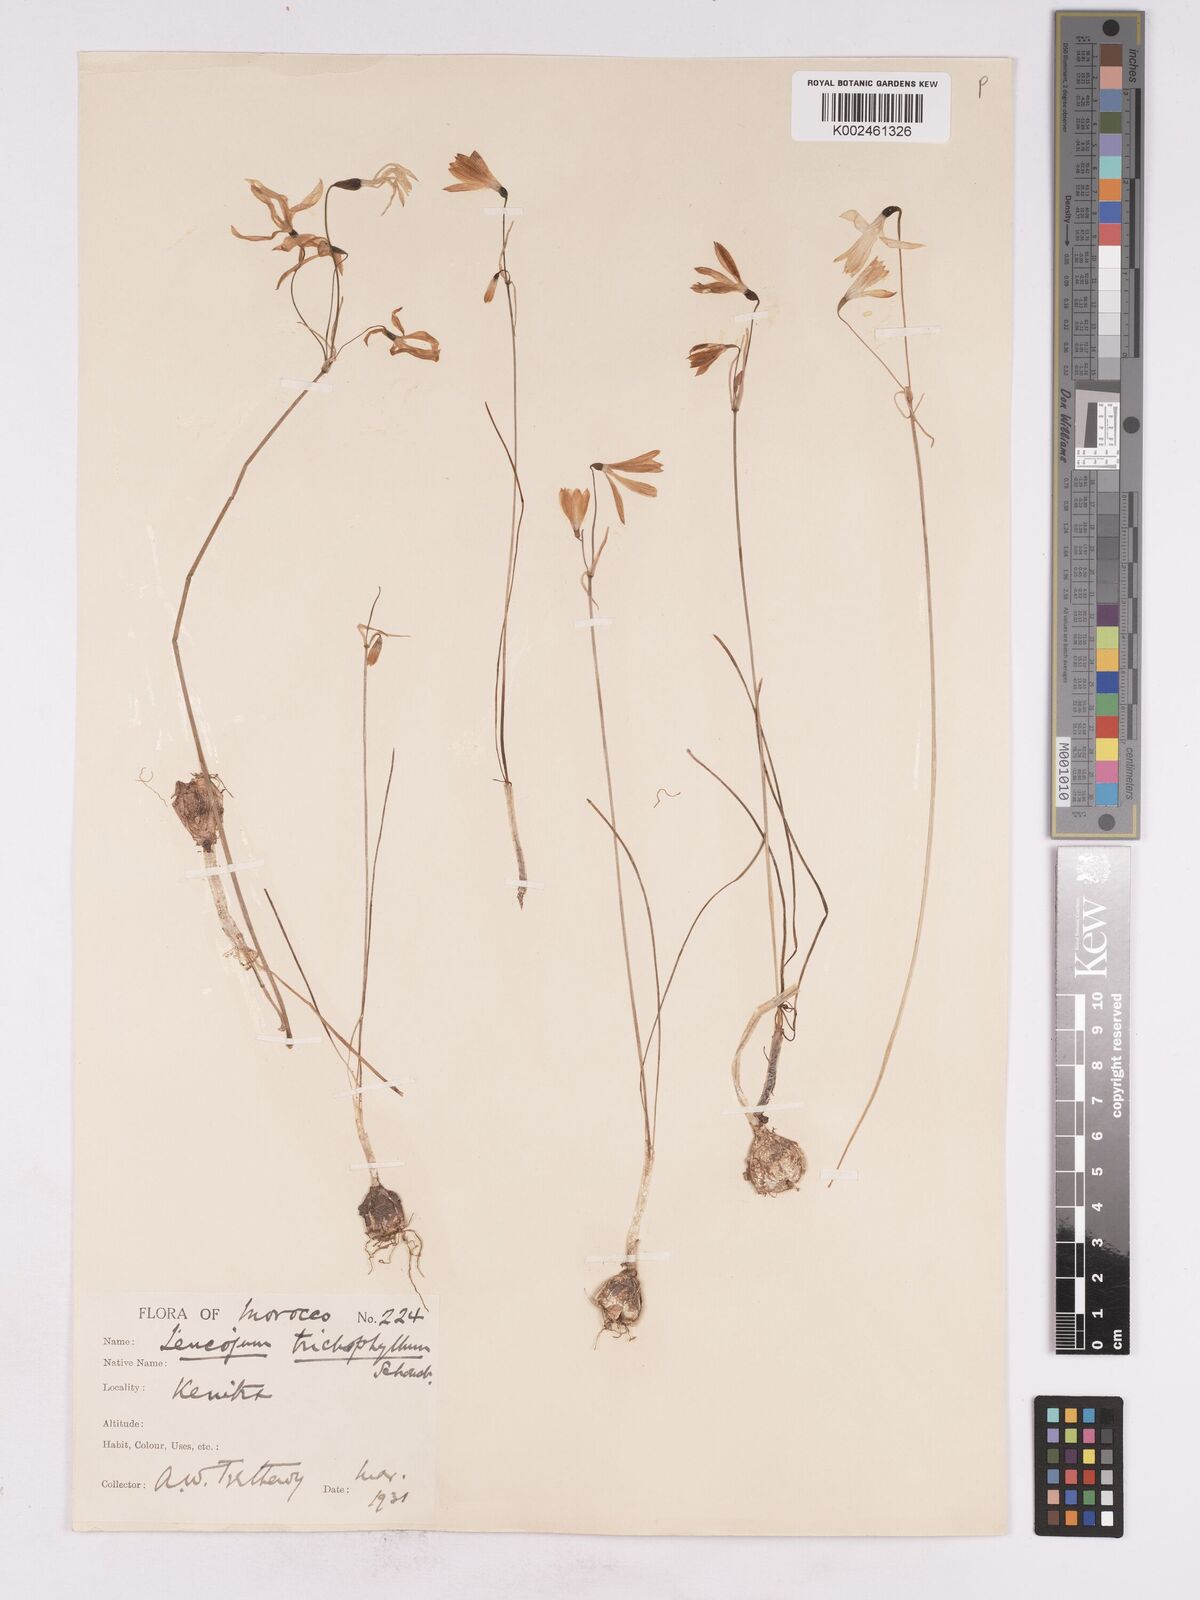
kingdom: Plantae
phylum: Tracheophyta
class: Liliopsida
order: Asparagales
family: Amaryllidaceae
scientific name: Amaryllidaceae
